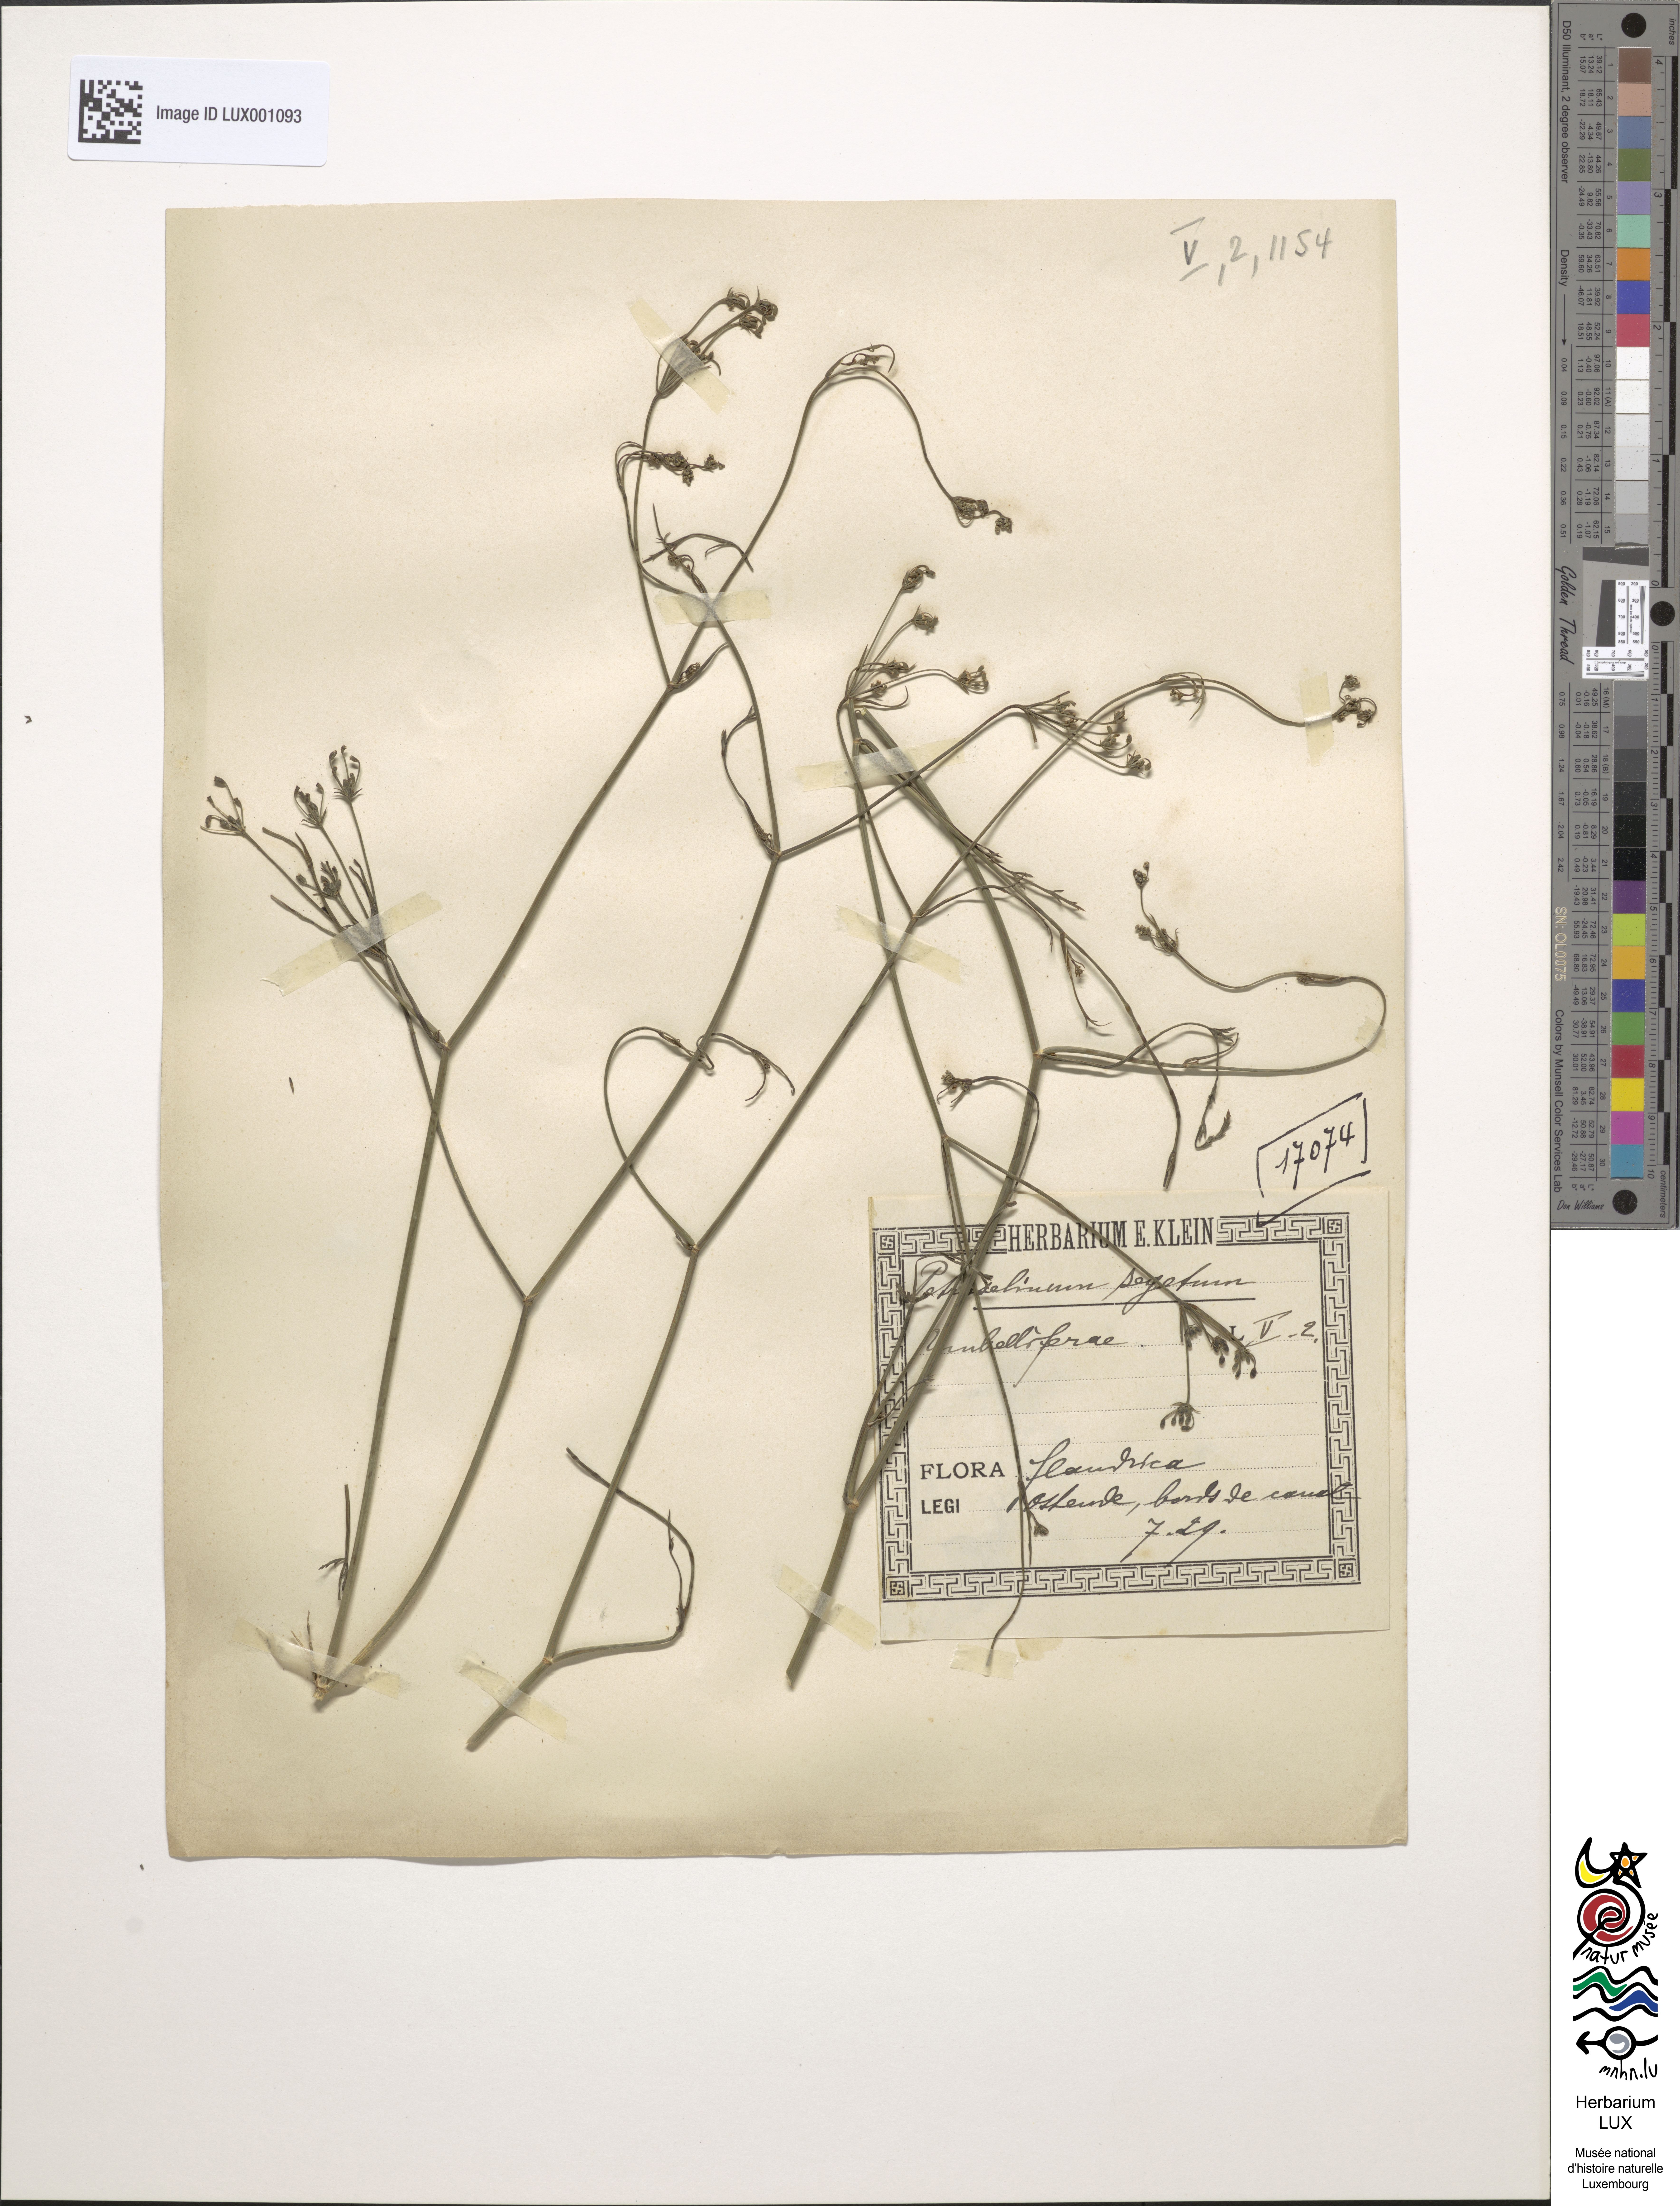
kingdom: Plantae
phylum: Tracheophyta
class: Magnoliopsida
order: Apiales
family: Apiaceae
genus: Sison
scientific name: Sison segetum
